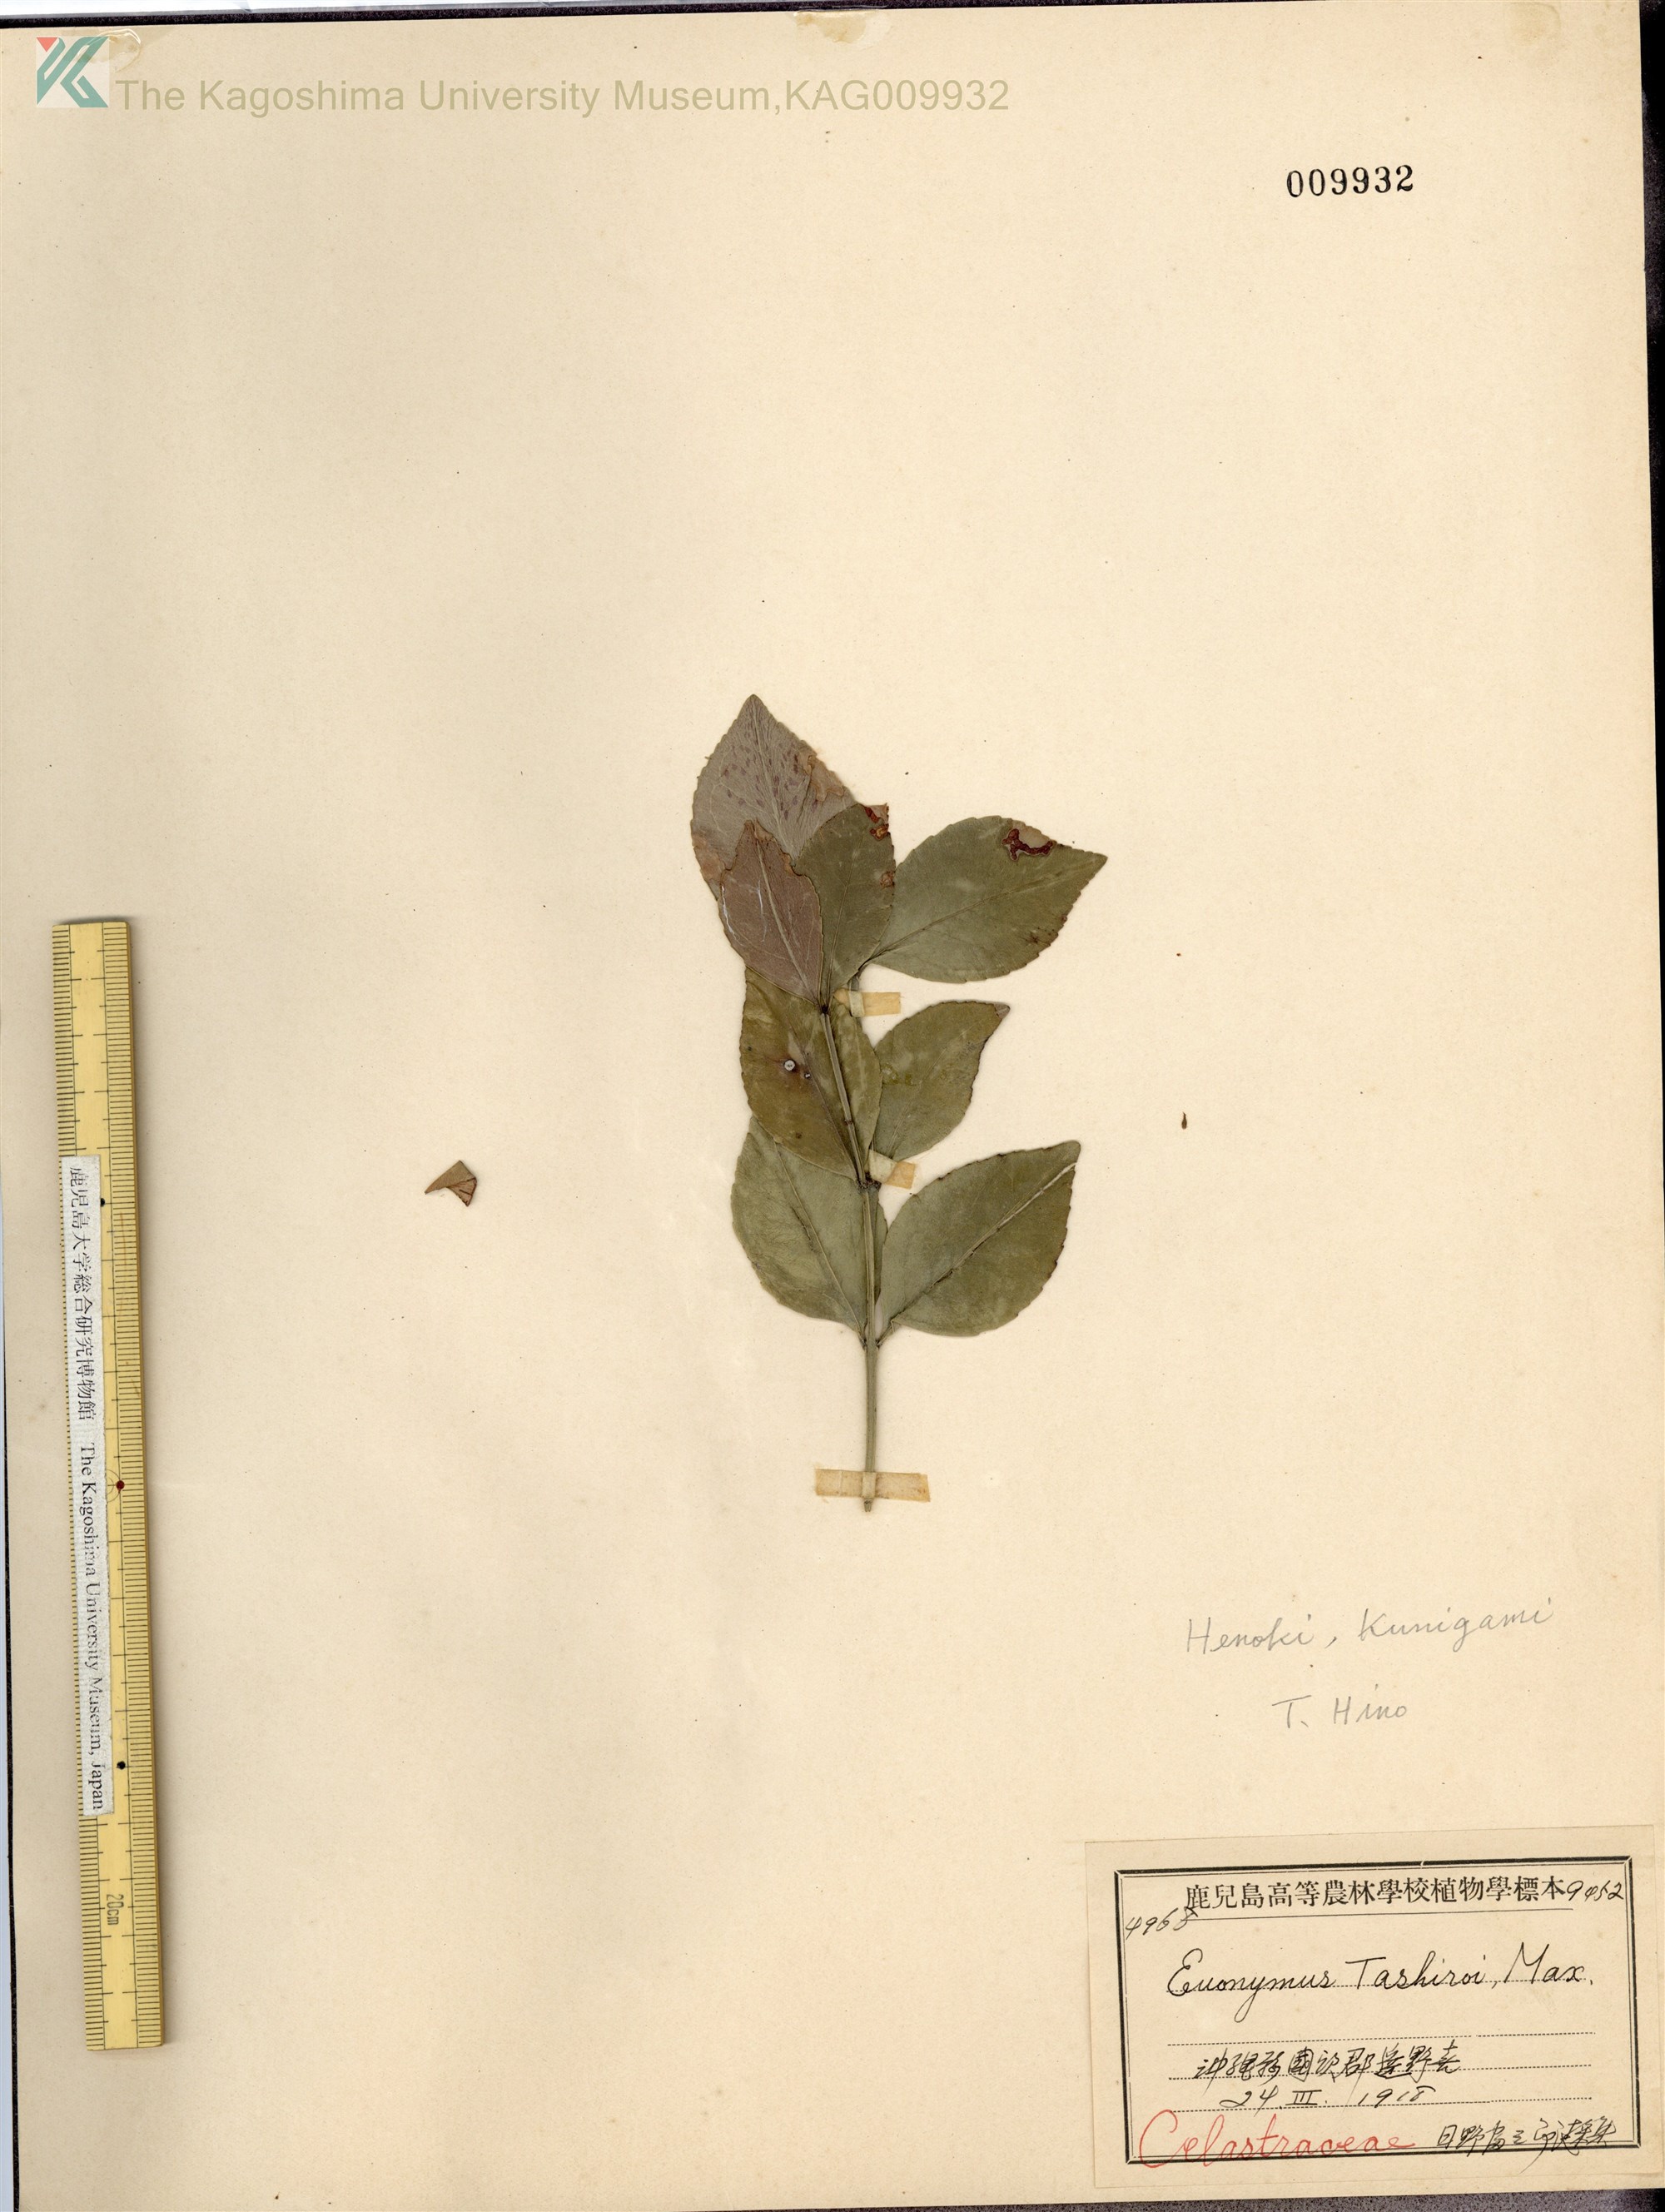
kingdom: Plantae
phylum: Tracheophyta
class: Magnoliopsida
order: Celastrales
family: Celastraceae
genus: Euonymus
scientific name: Euonymus tashiroi
